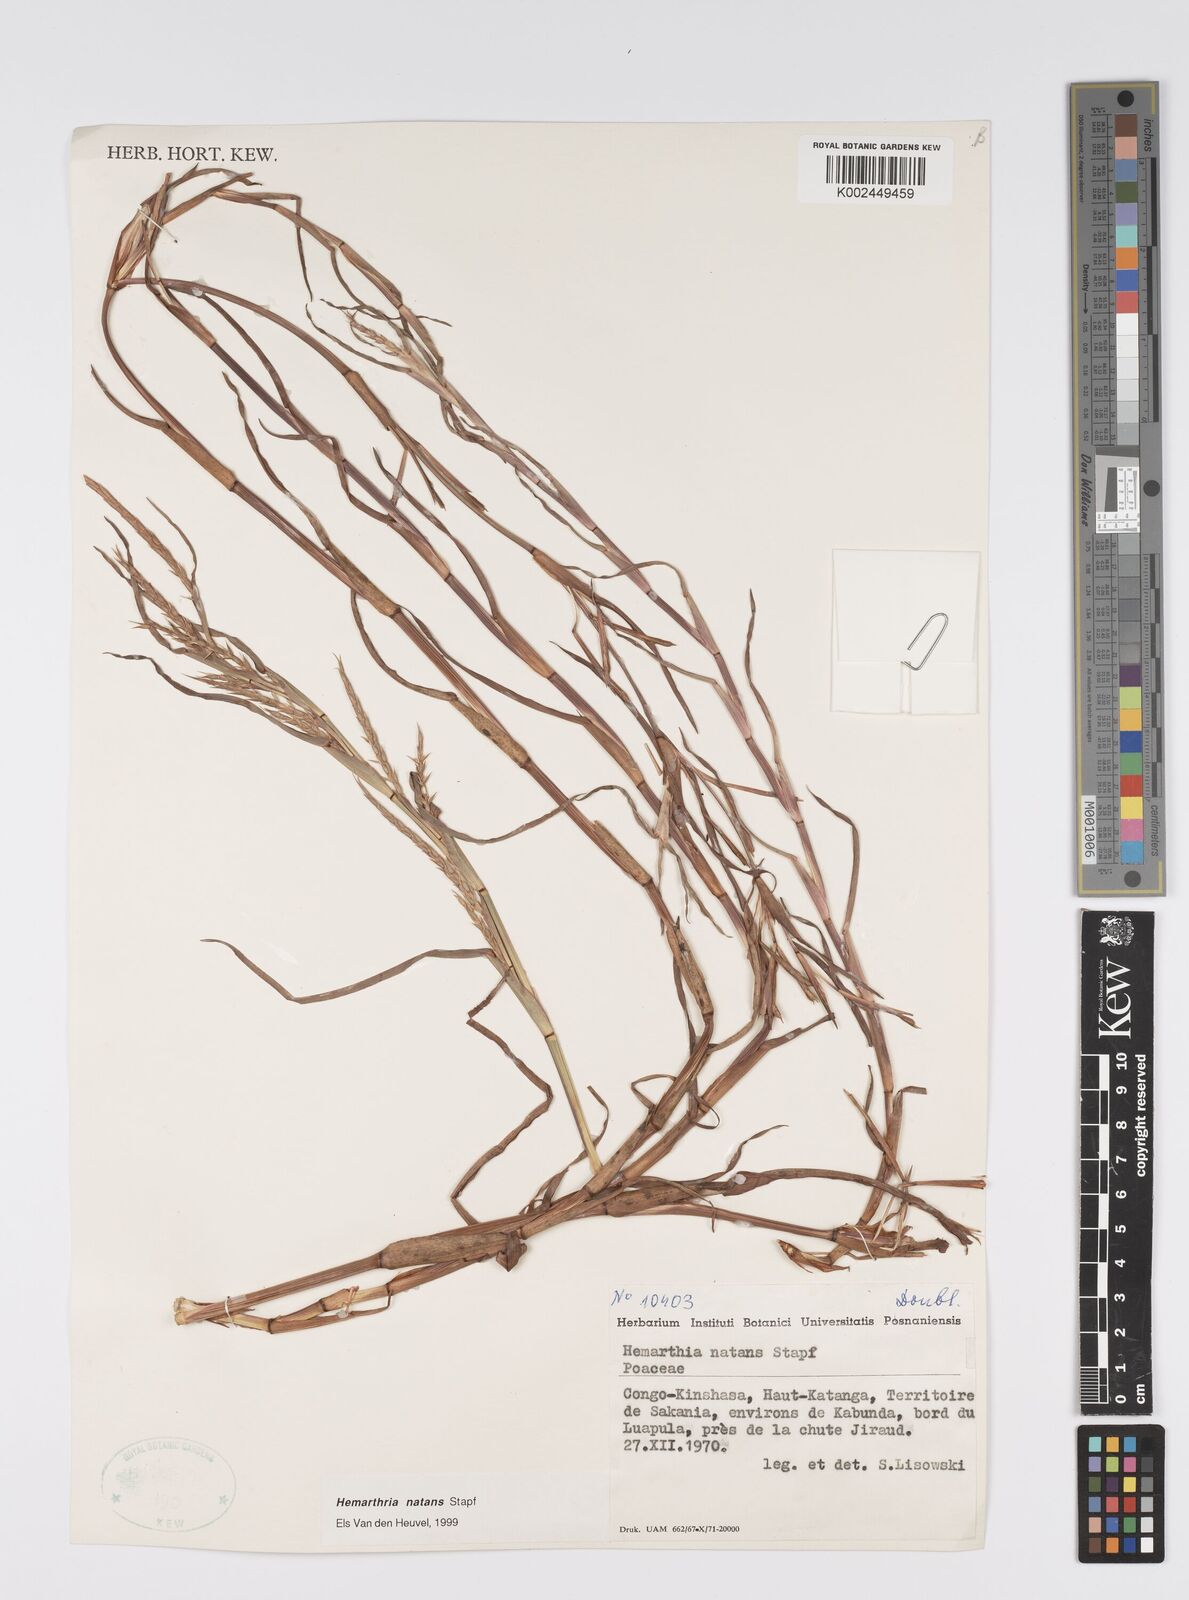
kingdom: Plantae
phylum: Tracheophyta
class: Liliopsida
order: Poales
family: Poaceae
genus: Hemarthria
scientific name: Hemarthria natans
